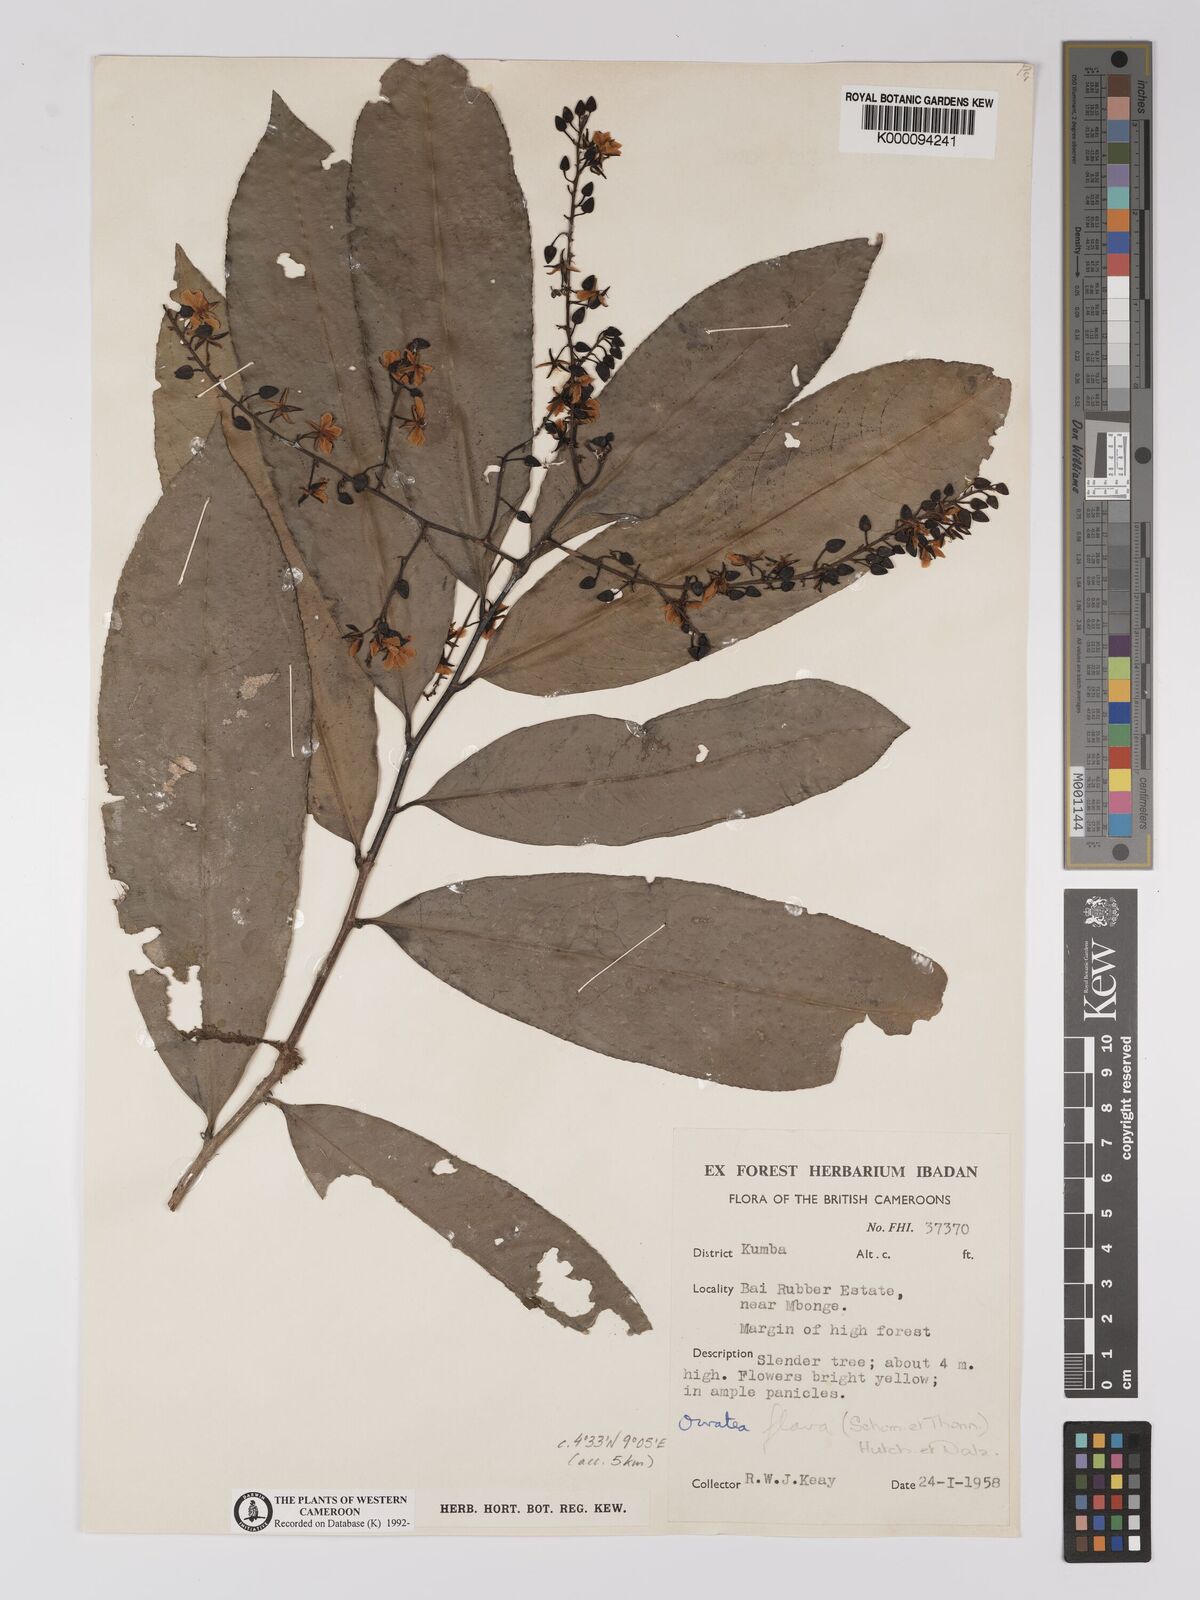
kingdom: Plantae
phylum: Tracheophyta
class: Magnoliopsida
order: Malpighiales
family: Ochnaceae
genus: Campylospermum
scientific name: Campylospermum flavum
